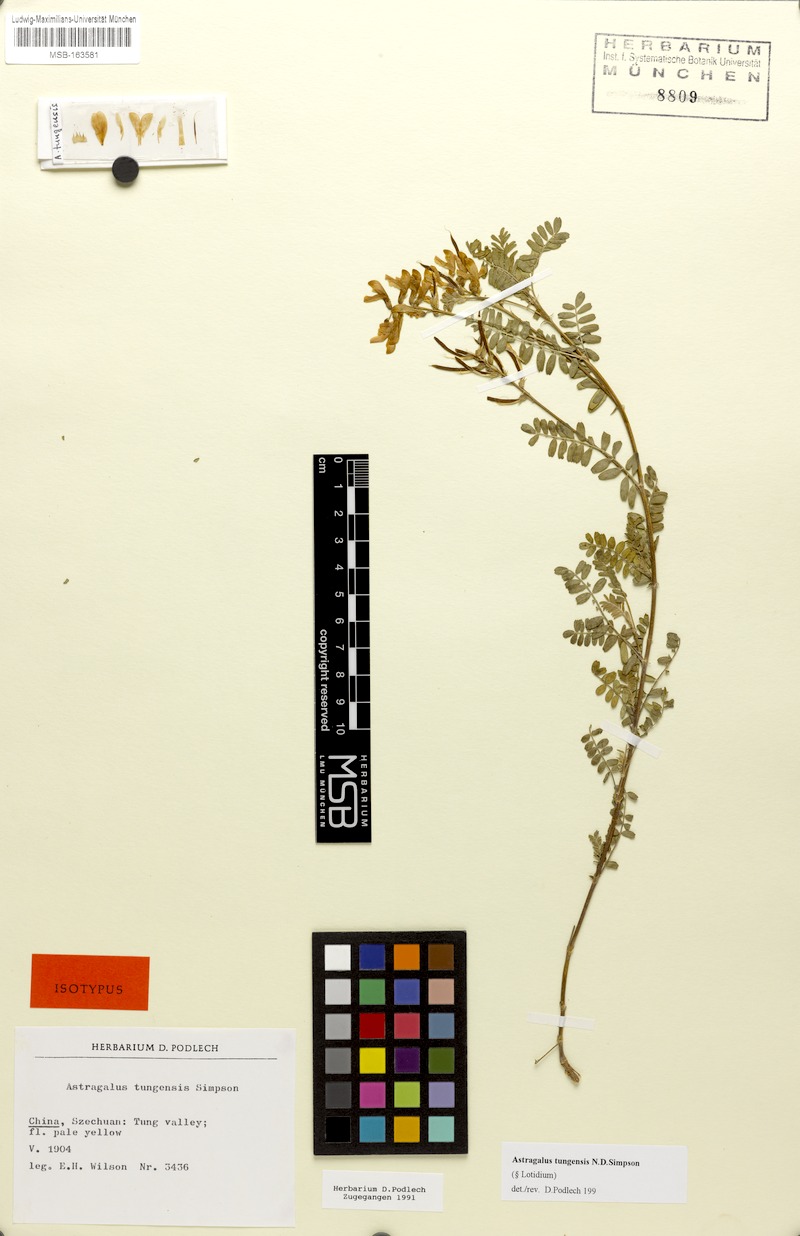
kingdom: Plantae
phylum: Tracheophyta
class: Magnoliopsida
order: Fabales
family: Fabaceae
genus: Astragalus
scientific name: Astragalus tungensis
